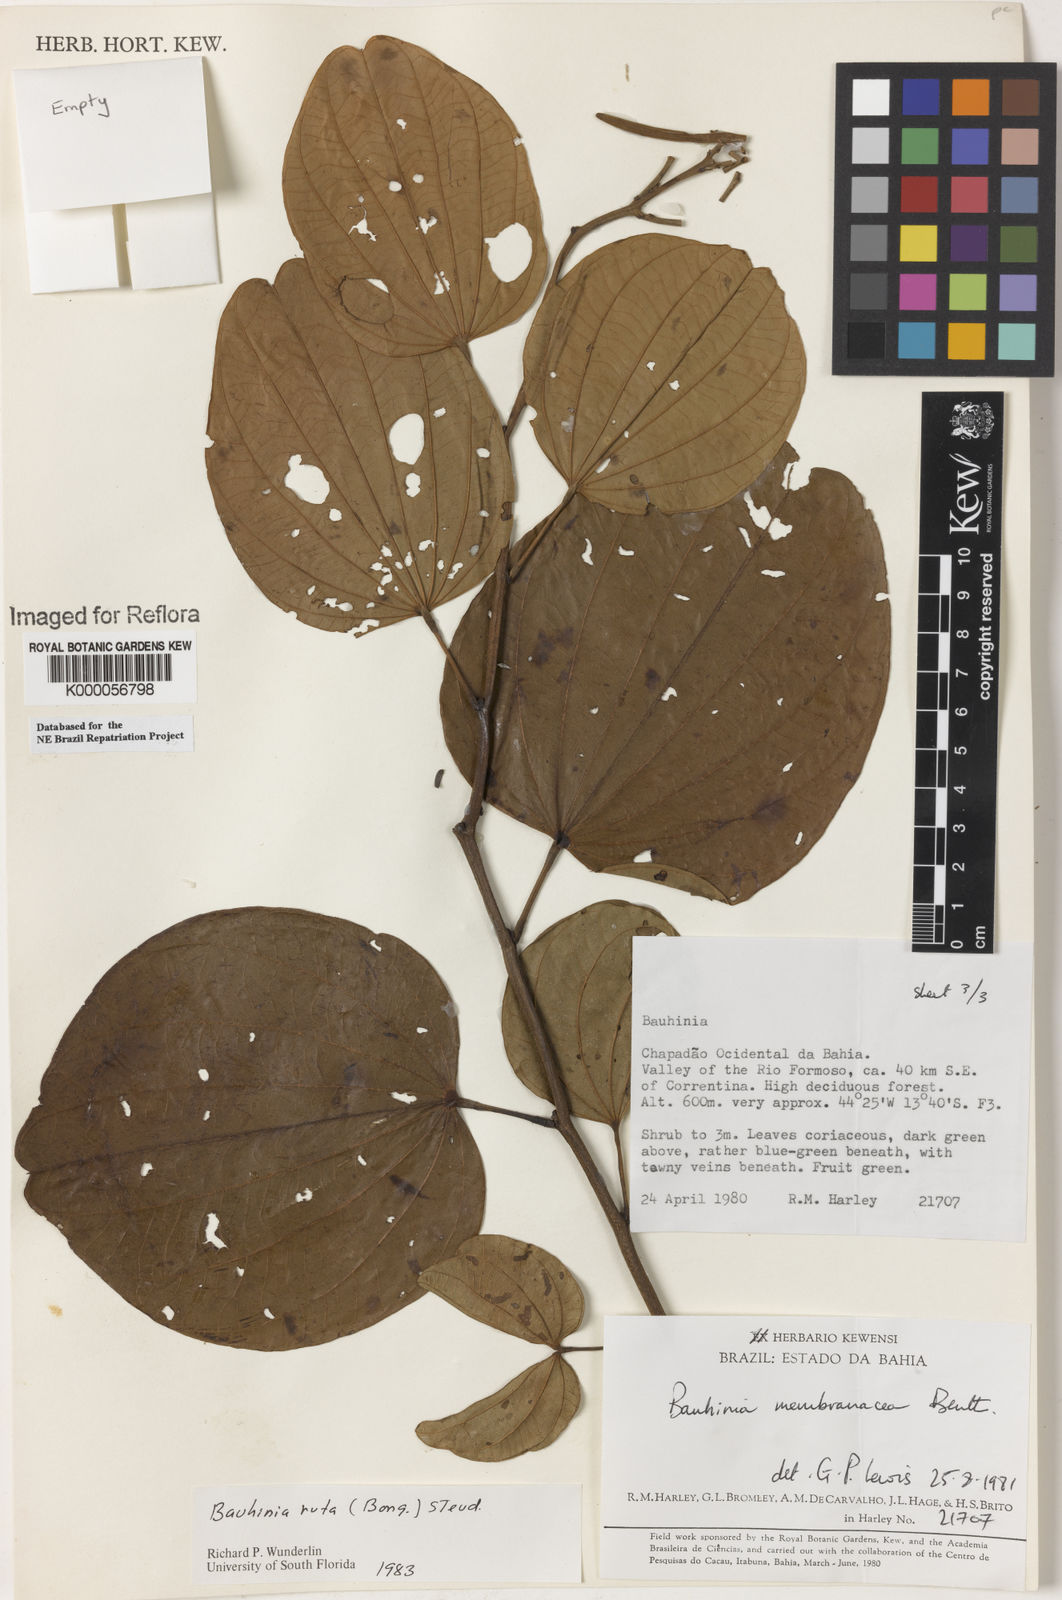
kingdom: Plantae
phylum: Tracheophyta
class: Magnoliopsida
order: Fabales
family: Fabaceae
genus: Bauhinia
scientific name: Bauhinia rufa
